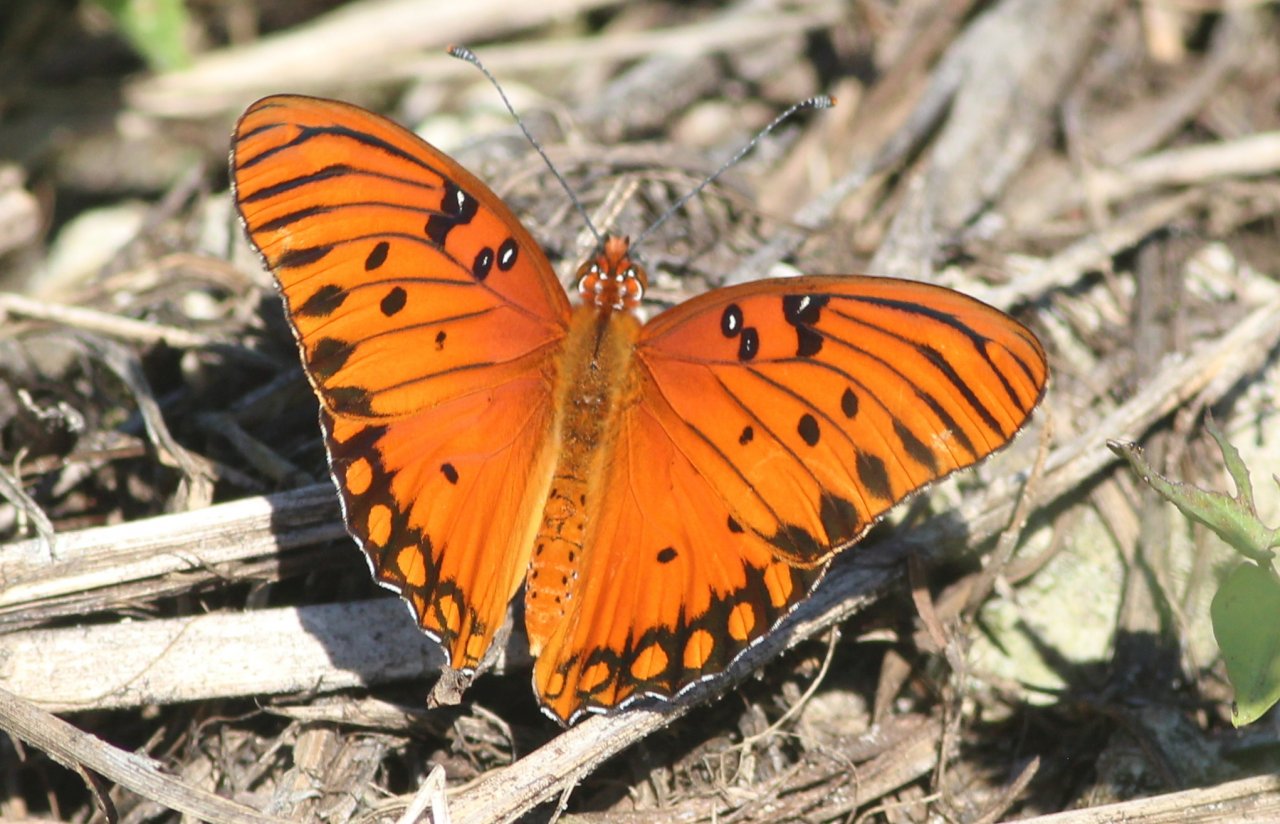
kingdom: Animalia
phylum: Arthropoda
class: Insecta
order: Lepidoptera
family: Nymphalidae
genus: Dione
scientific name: Dione vanillae
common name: Gulf Fritillary
